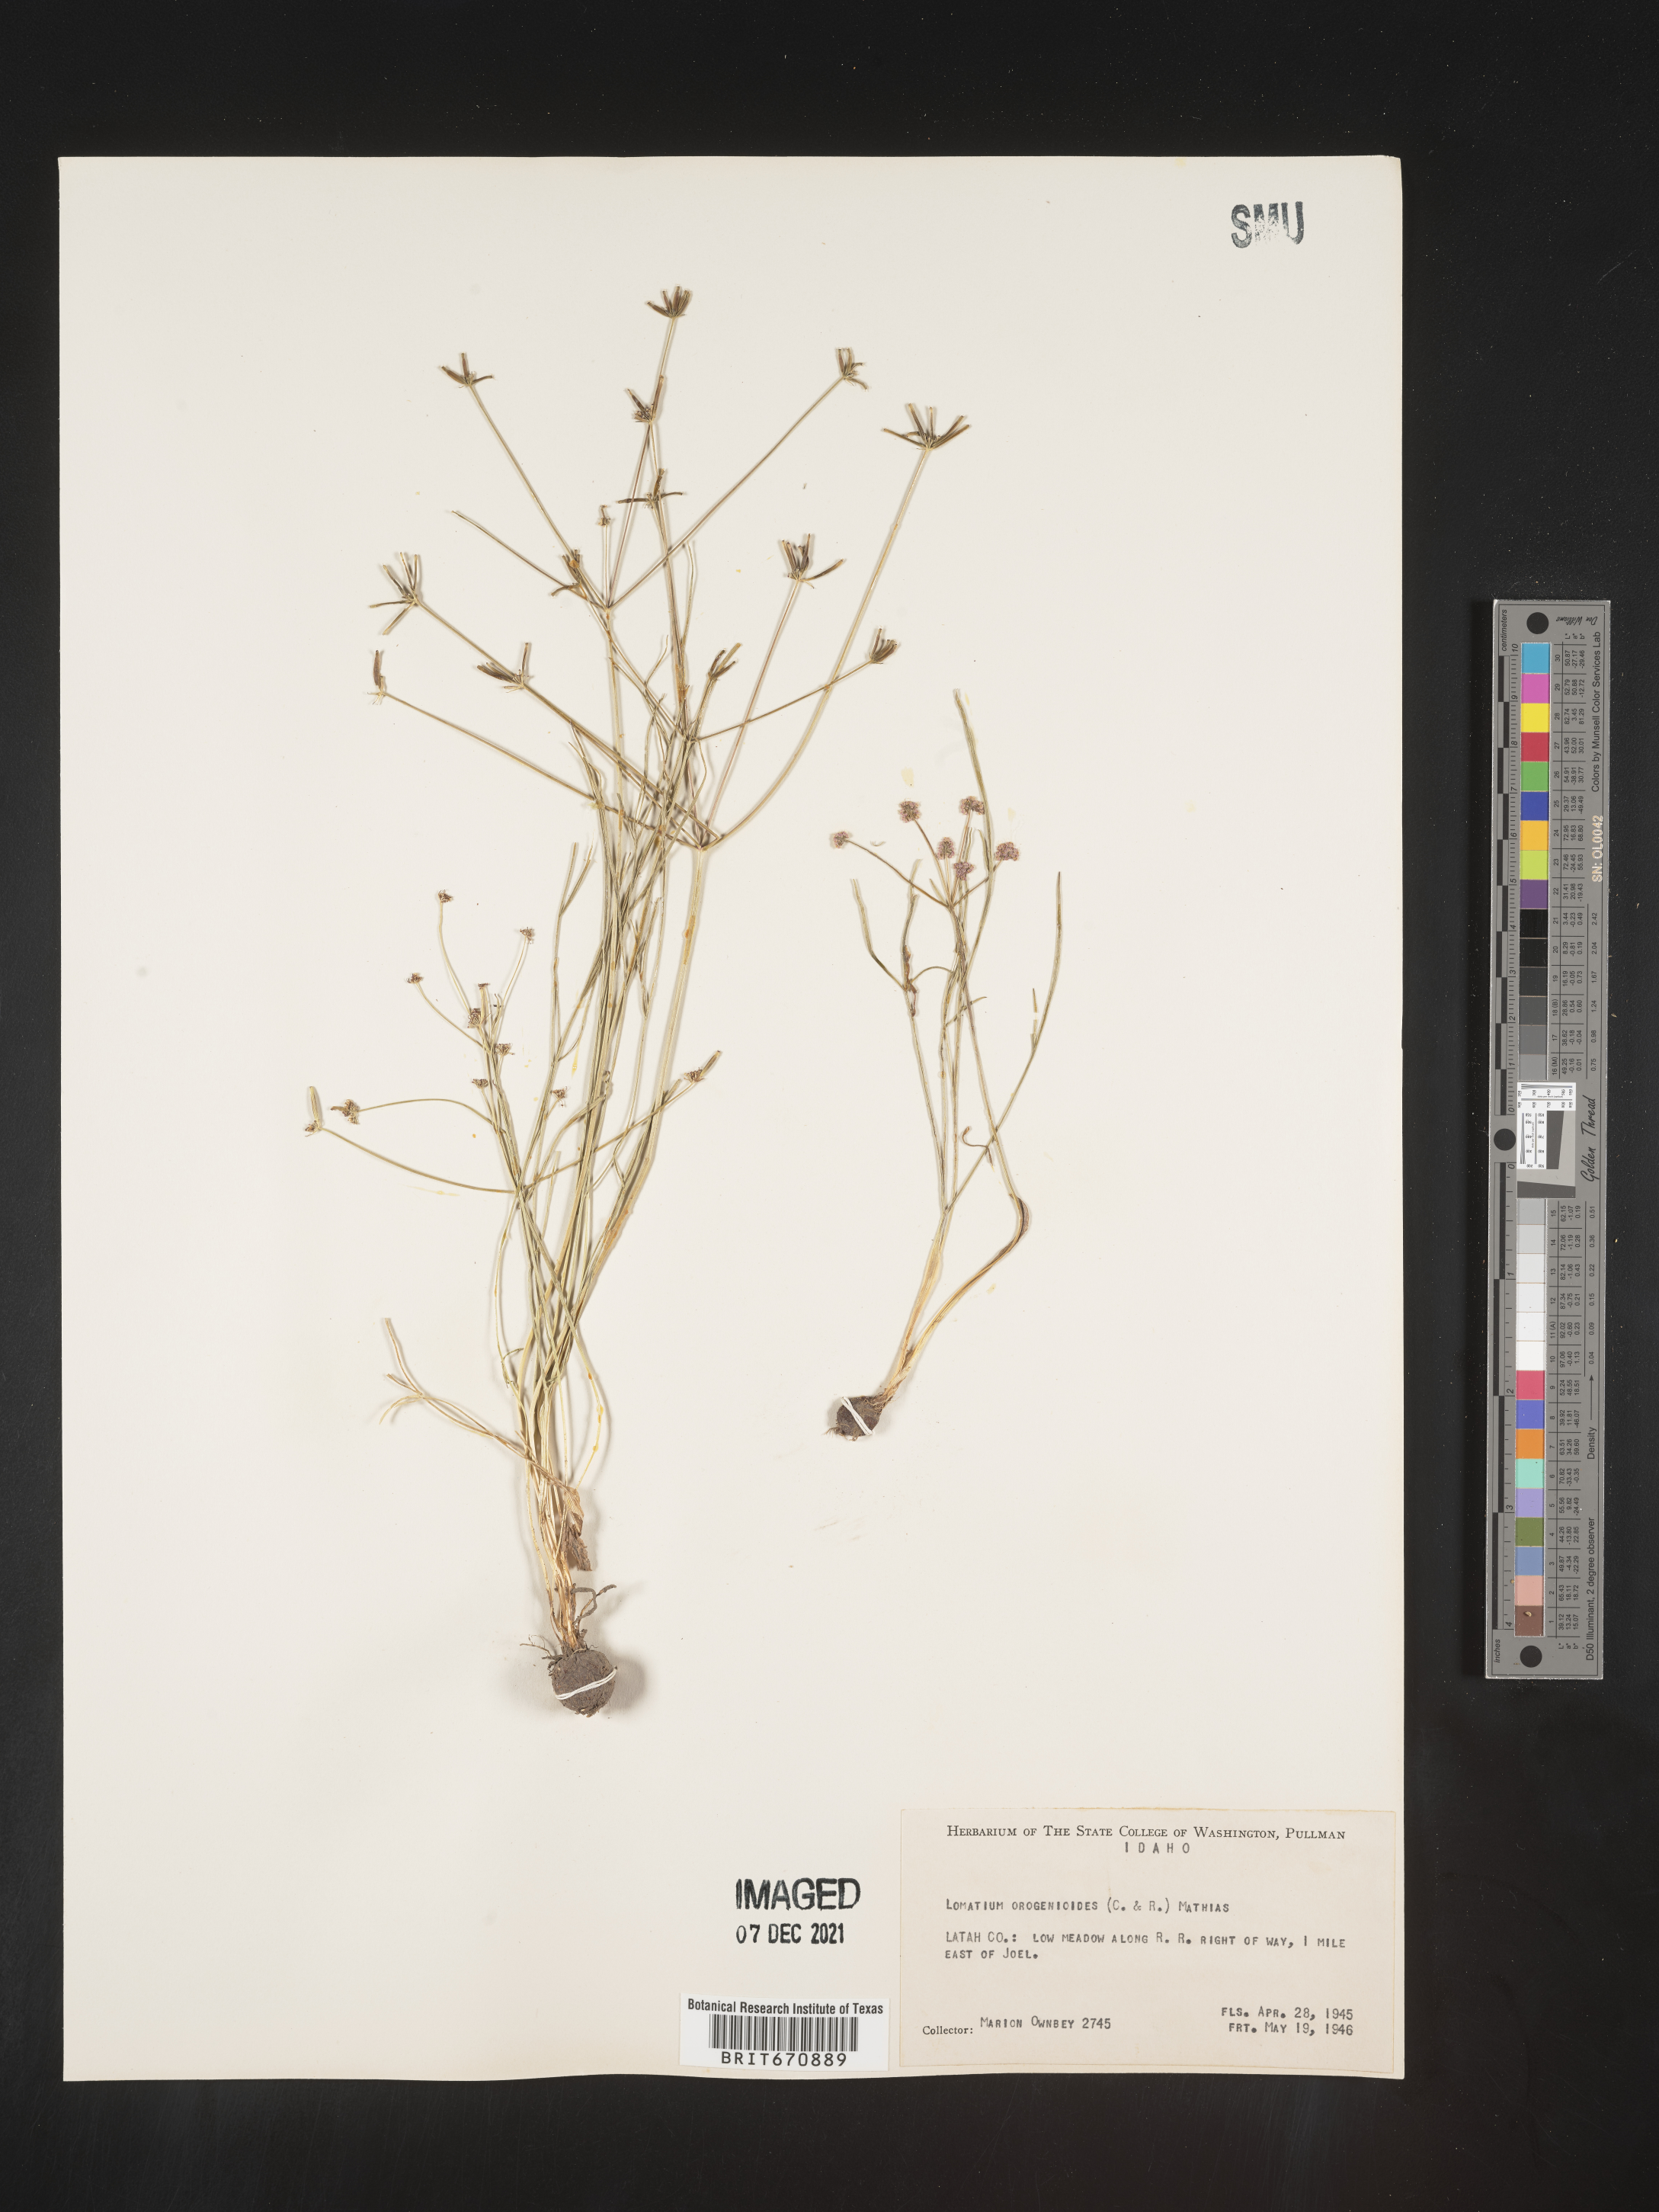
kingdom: Plantae
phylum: Tracheophyta
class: Magnoliopsida
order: Apiales
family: Apiaceae
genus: Lomatium
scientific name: Lomatium
